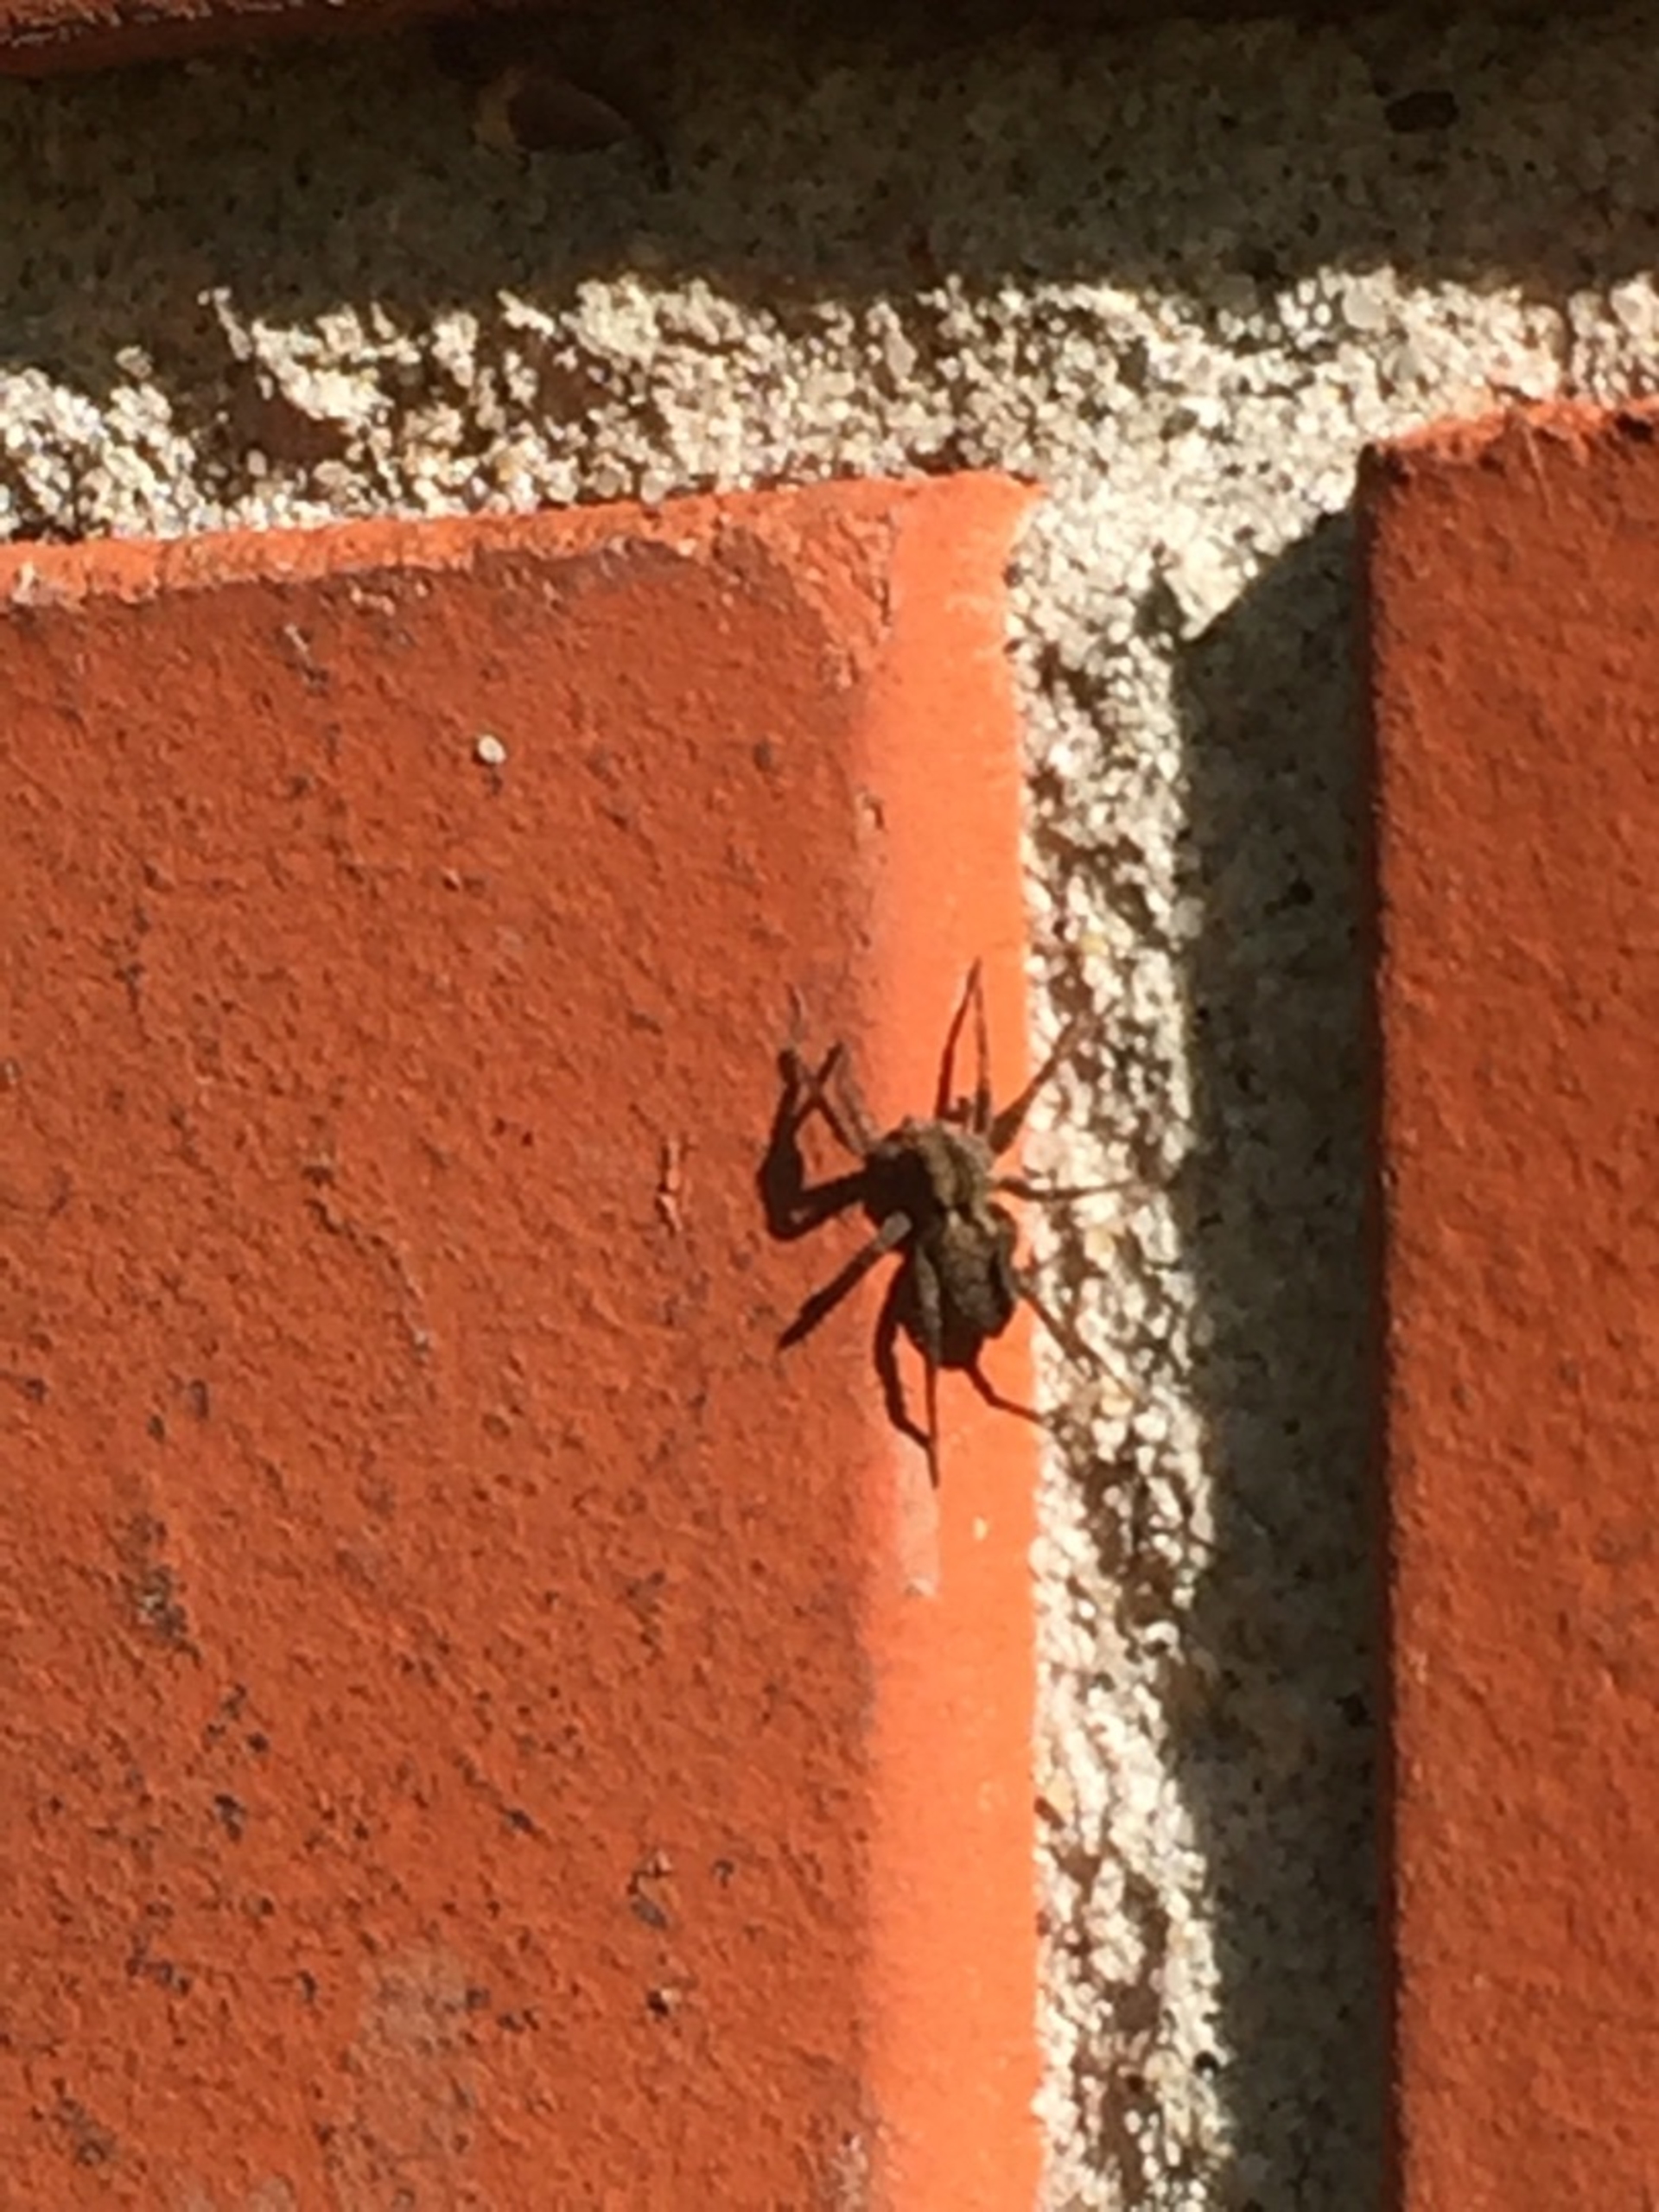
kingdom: Animalia
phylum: Arthropoda
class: Arachnida
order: Araneae
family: Lycosidae
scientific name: Lycosidae
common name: Jagtedderkopper
